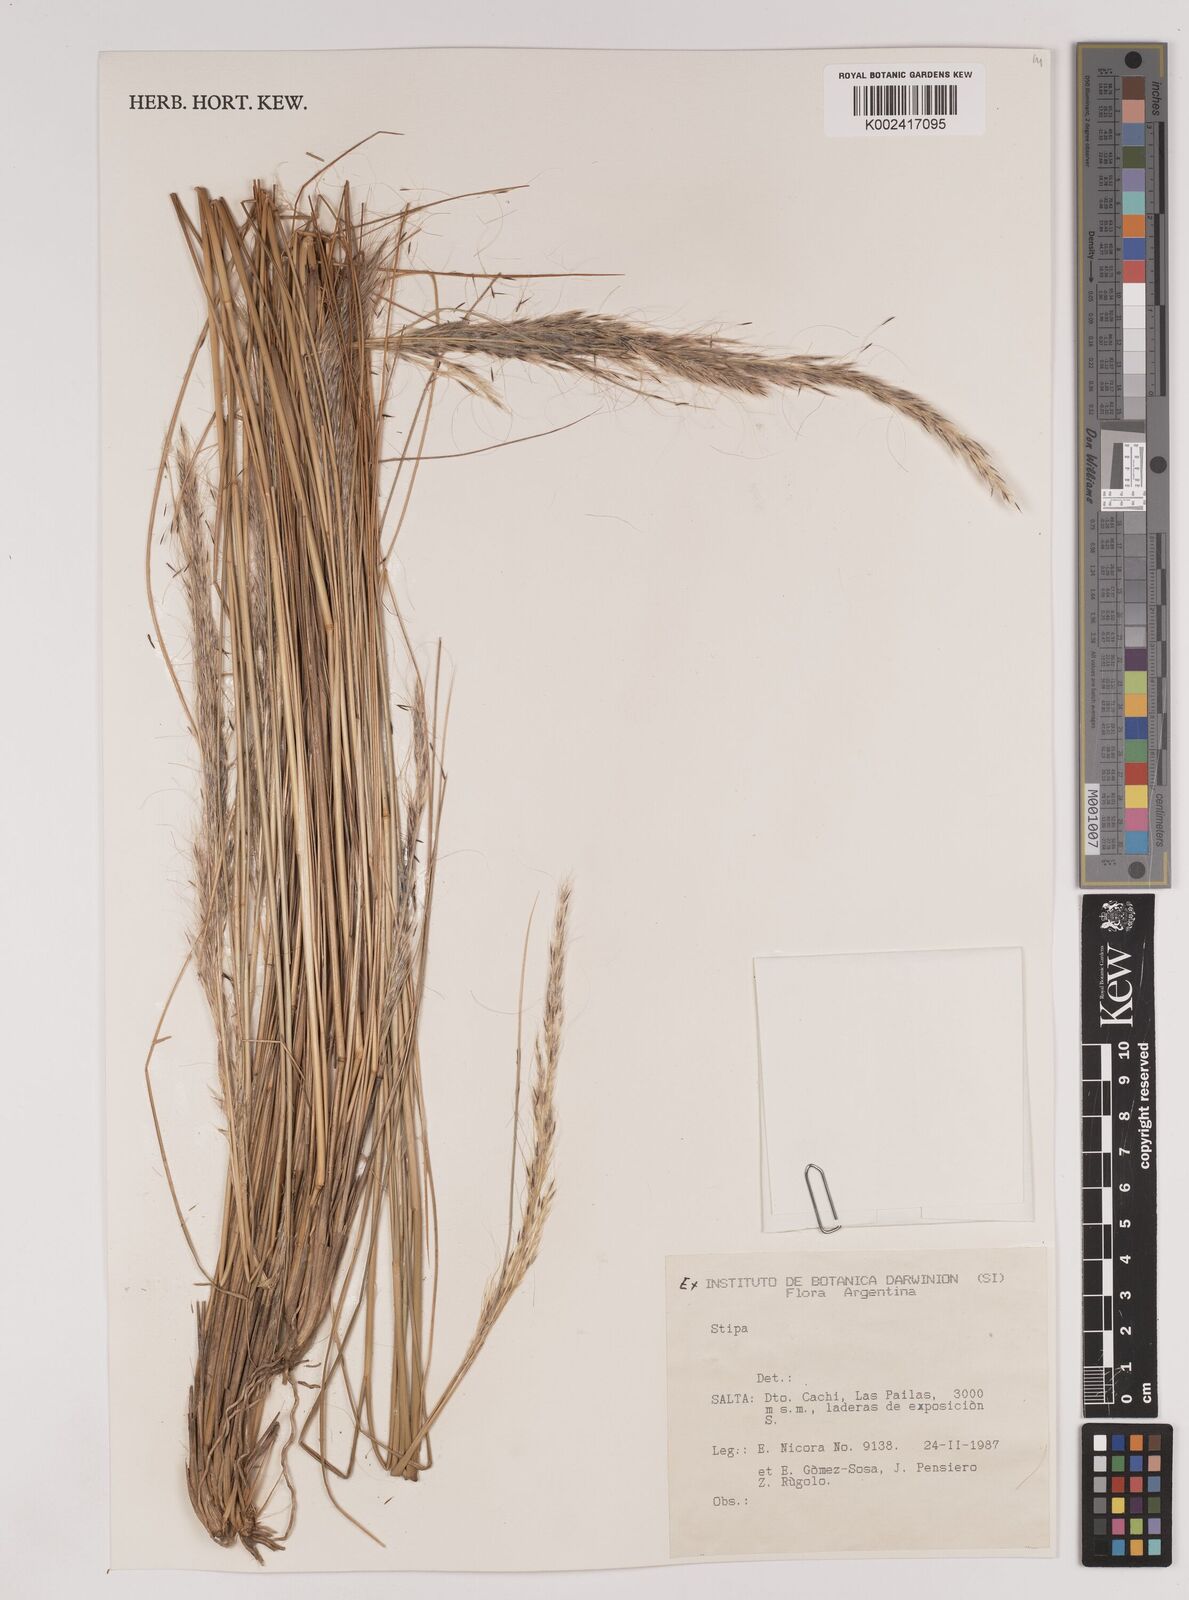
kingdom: Plantae
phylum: Tracheophyta
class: Liliopsida
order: Poales
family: Poaceae
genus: Stipa
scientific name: Stipa
